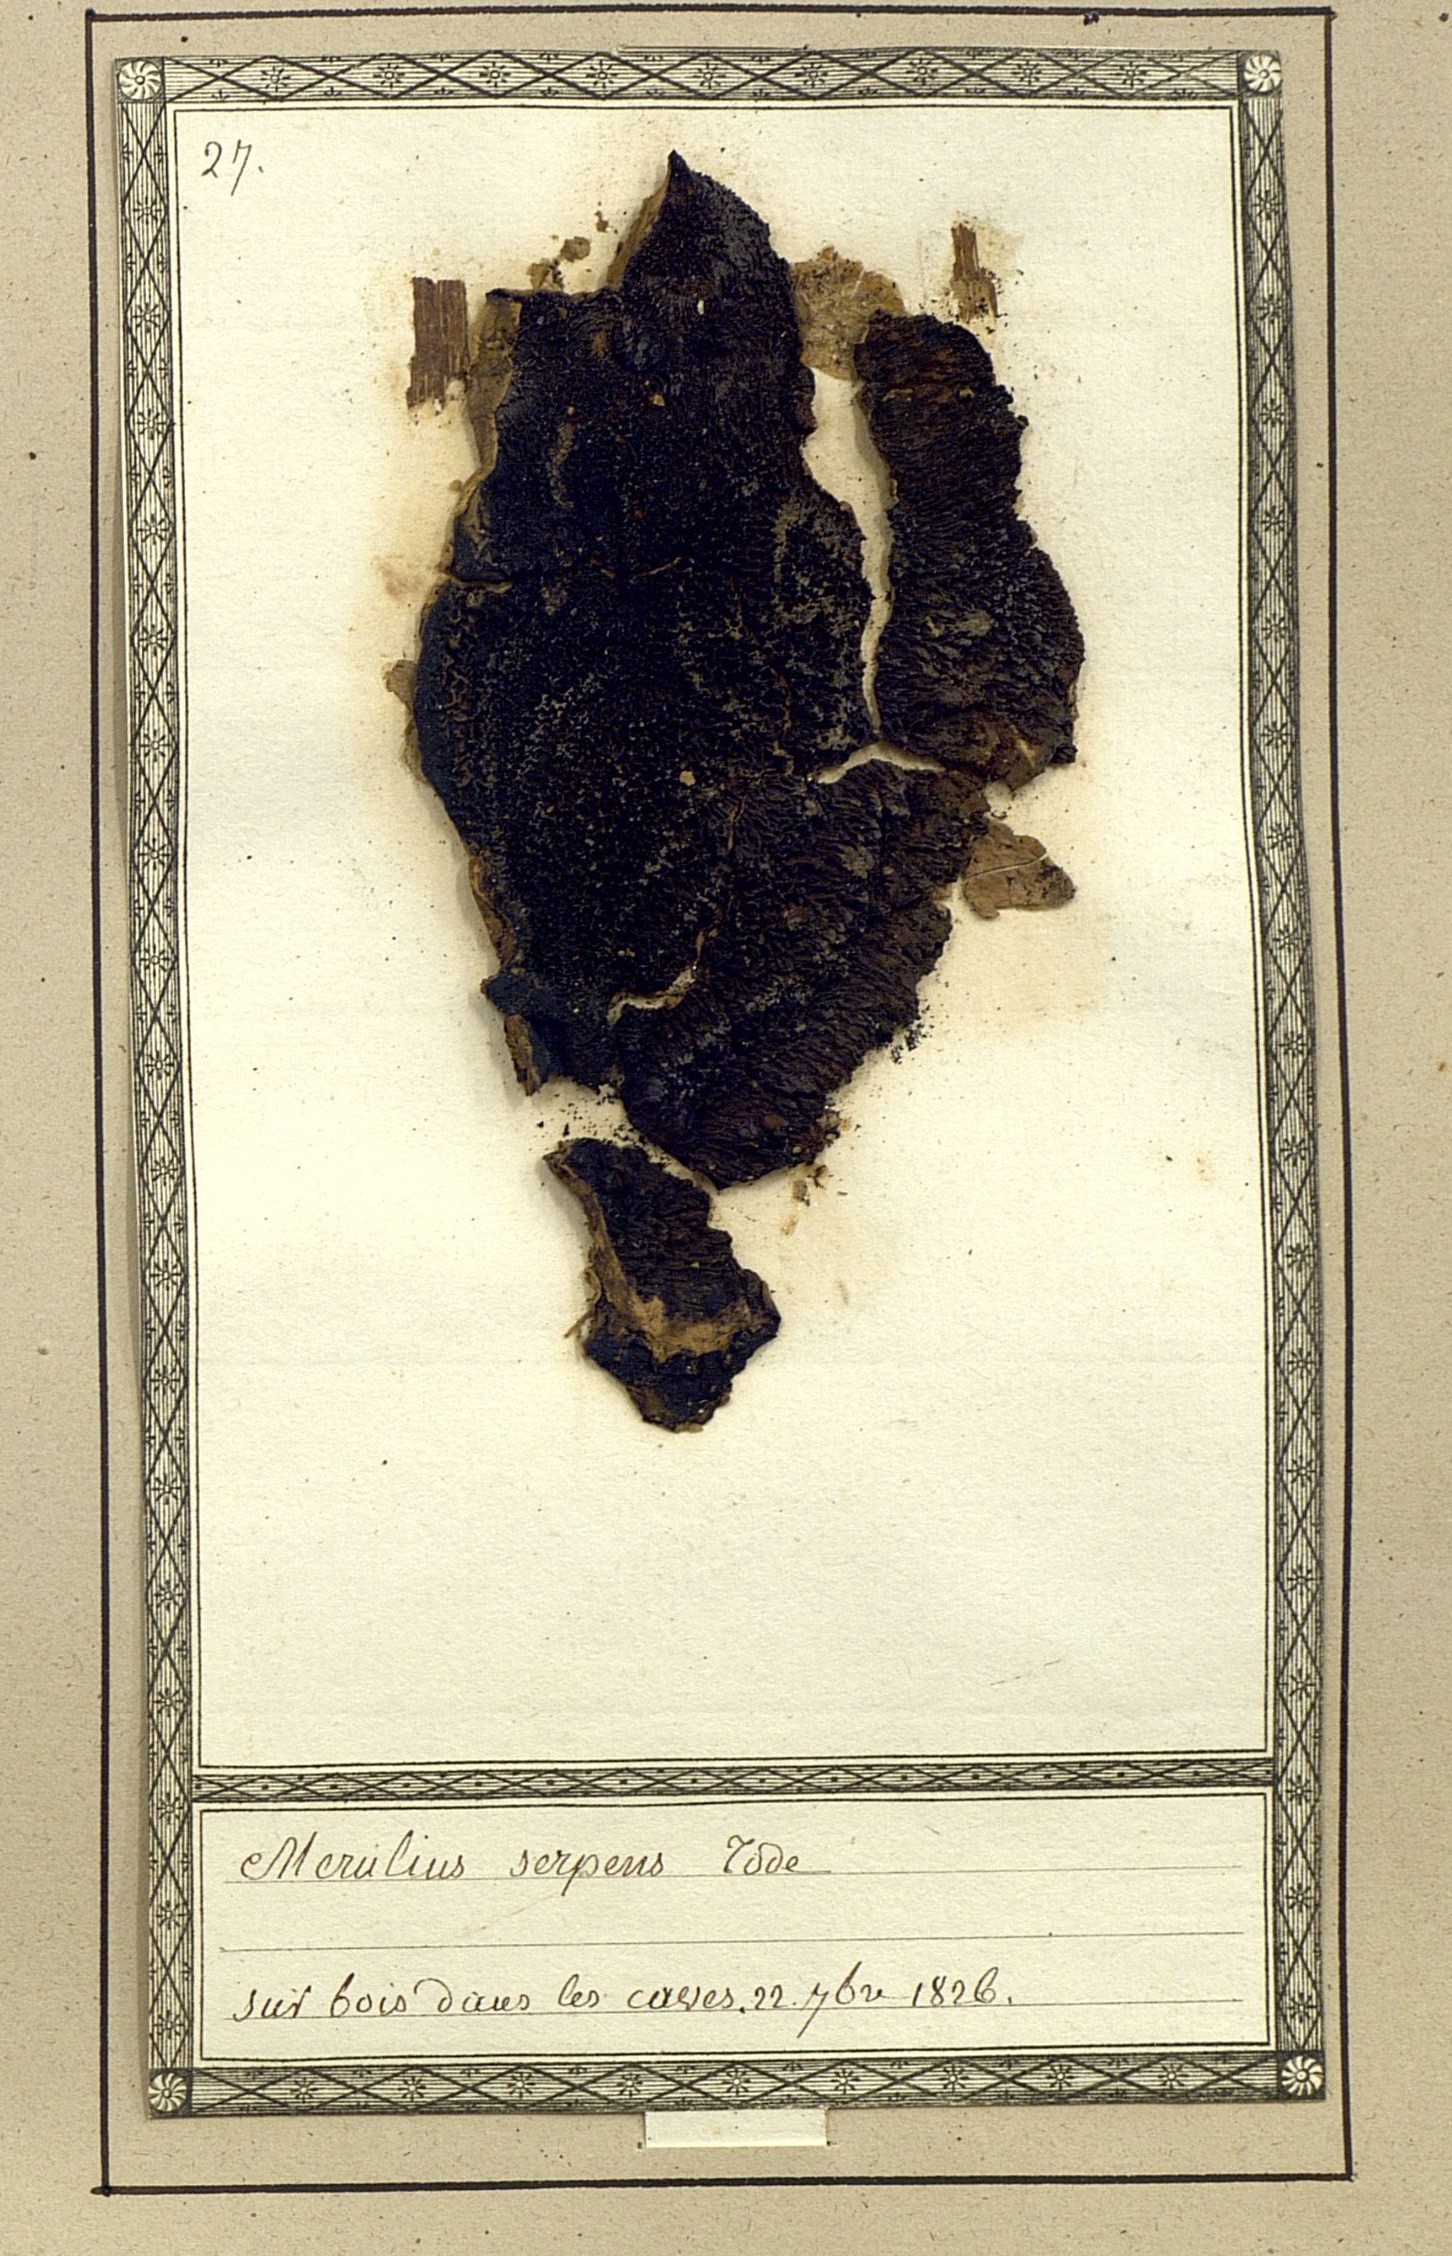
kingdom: Fungi
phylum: Basidiomycota
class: Agaricomycetes
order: Polyporales
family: Irpicaceae
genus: Crystallicutis
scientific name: Crystallicutis serpens
